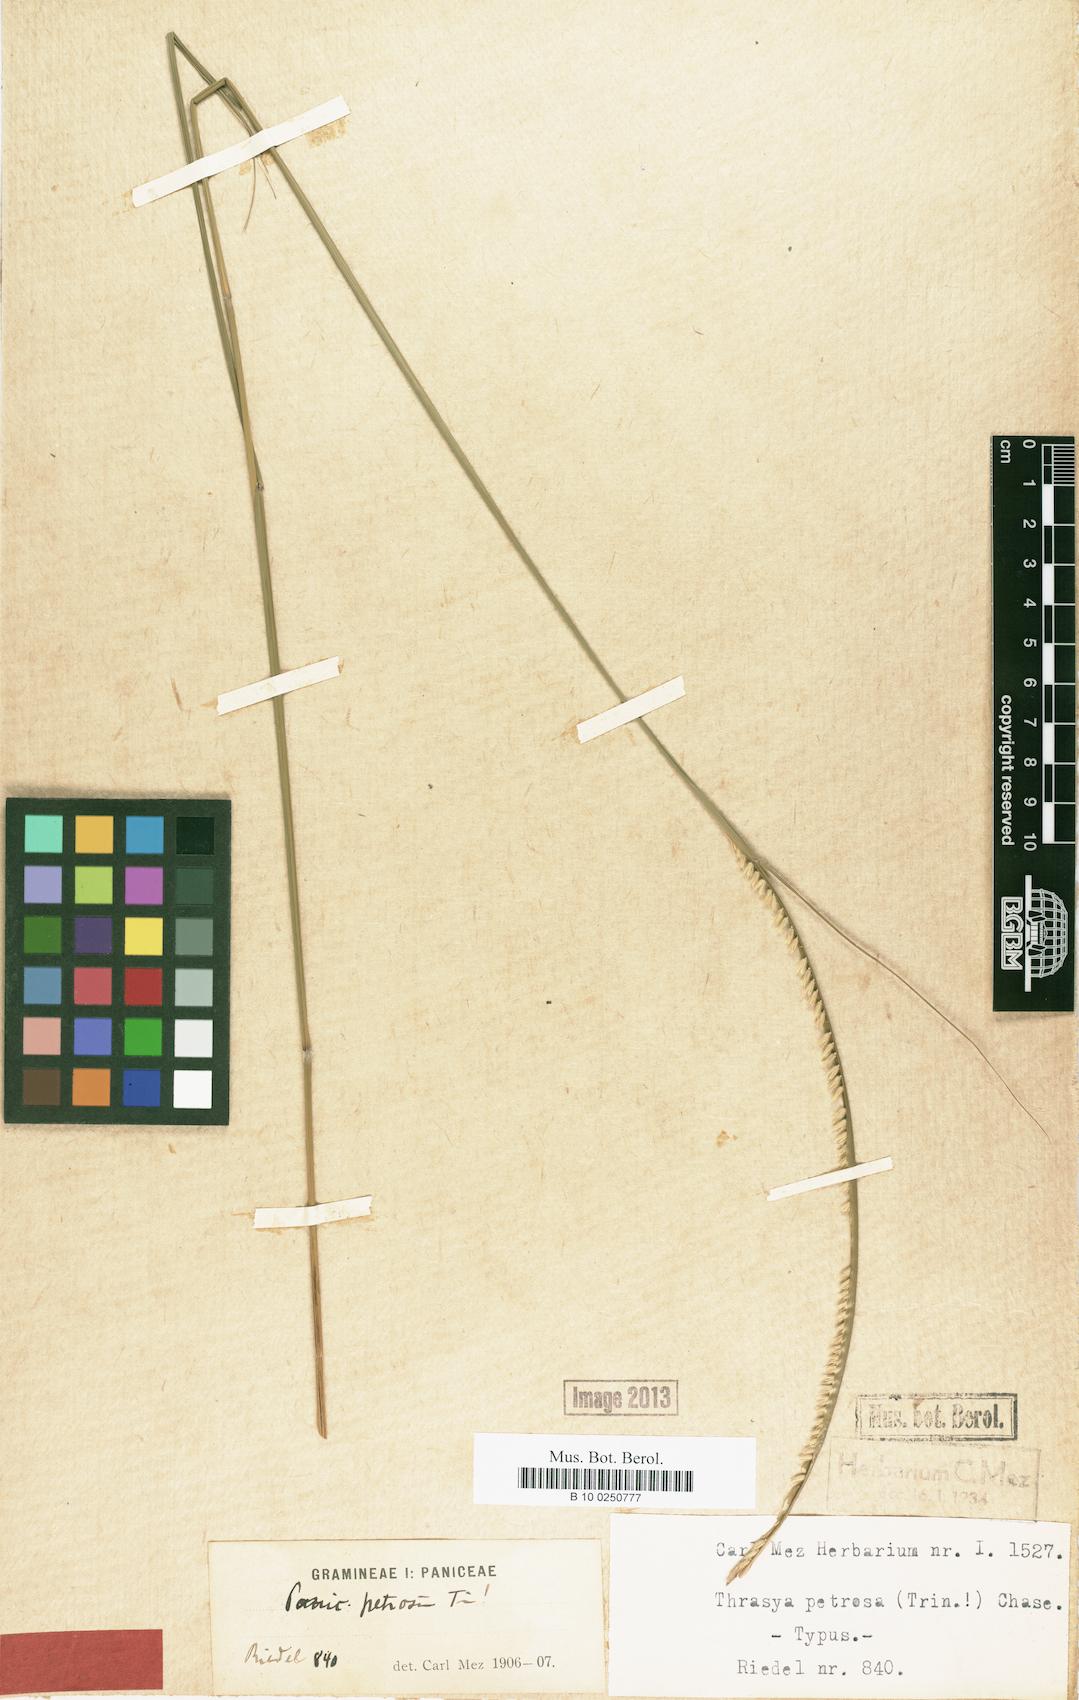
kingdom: Plantae
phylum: Tracheophyta
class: Liliopsida
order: Poales
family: Poaceae
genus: Paspalum
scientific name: Paspalum foliiforme
